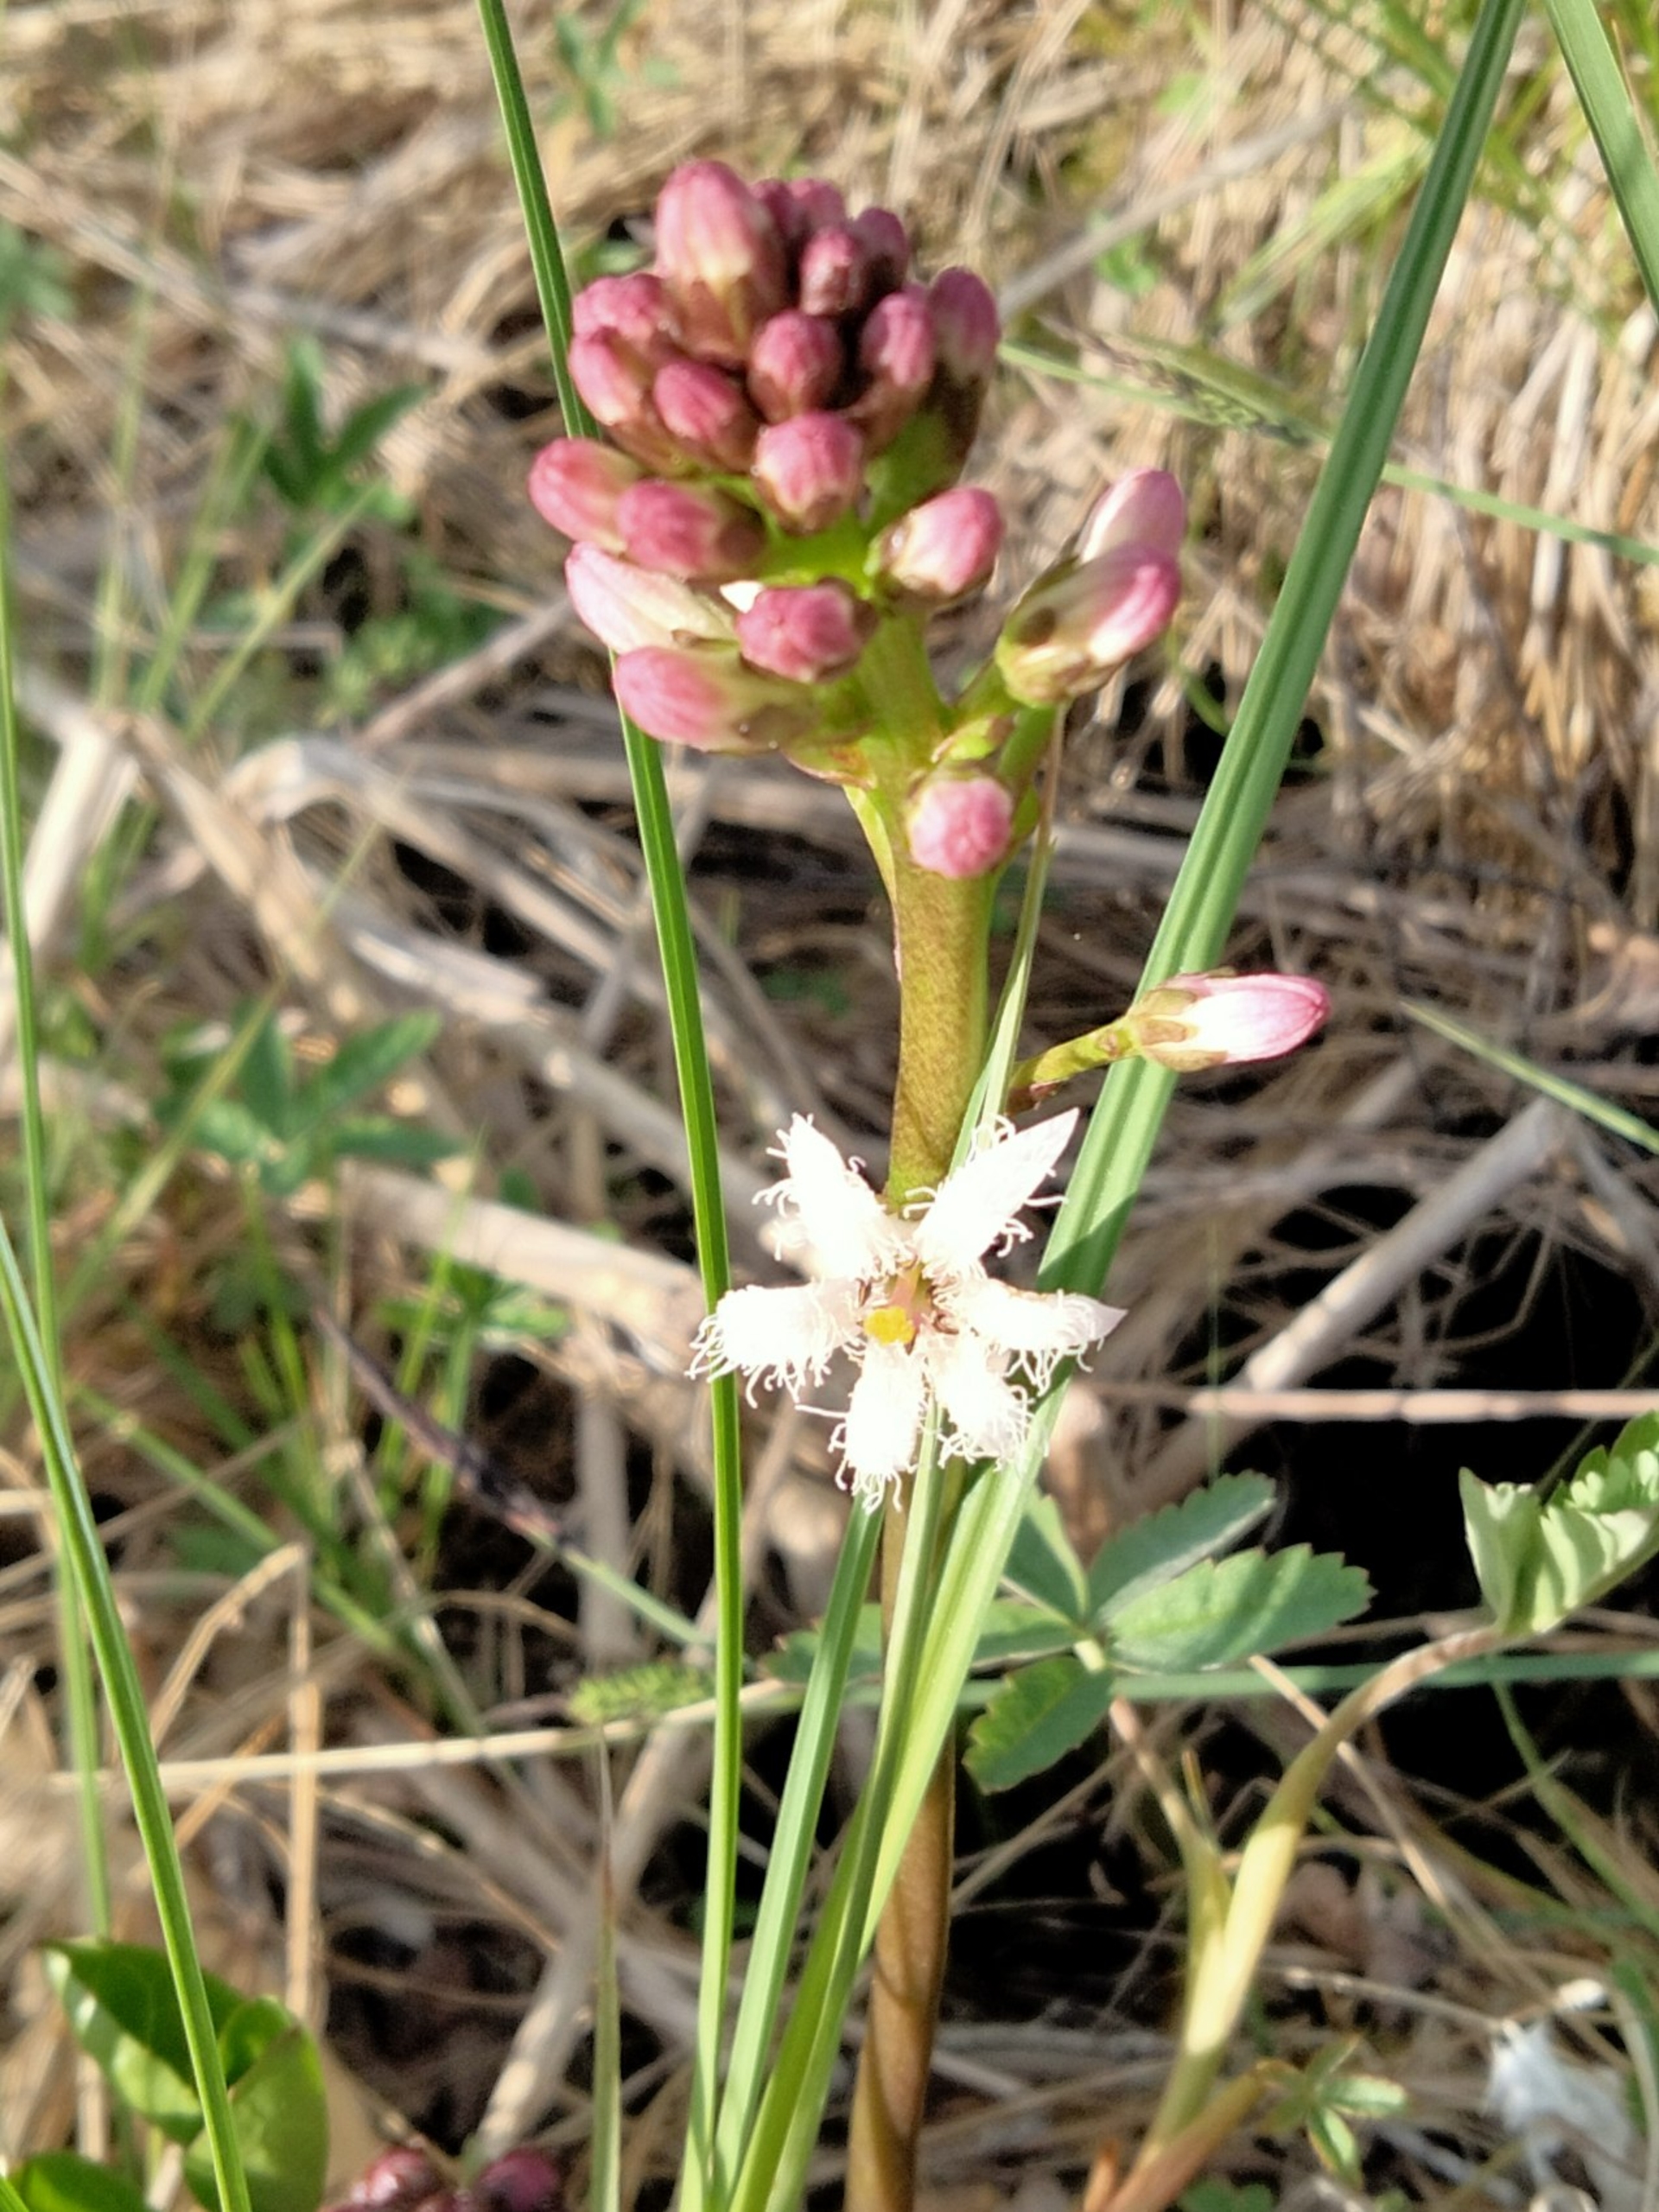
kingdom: Plantae
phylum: Tracheophyta
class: Magnoliopsida
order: Asterales
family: Menyanthaceae
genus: Menyanthes
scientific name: Menyanthes trifoliata
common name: Bukkeblad
